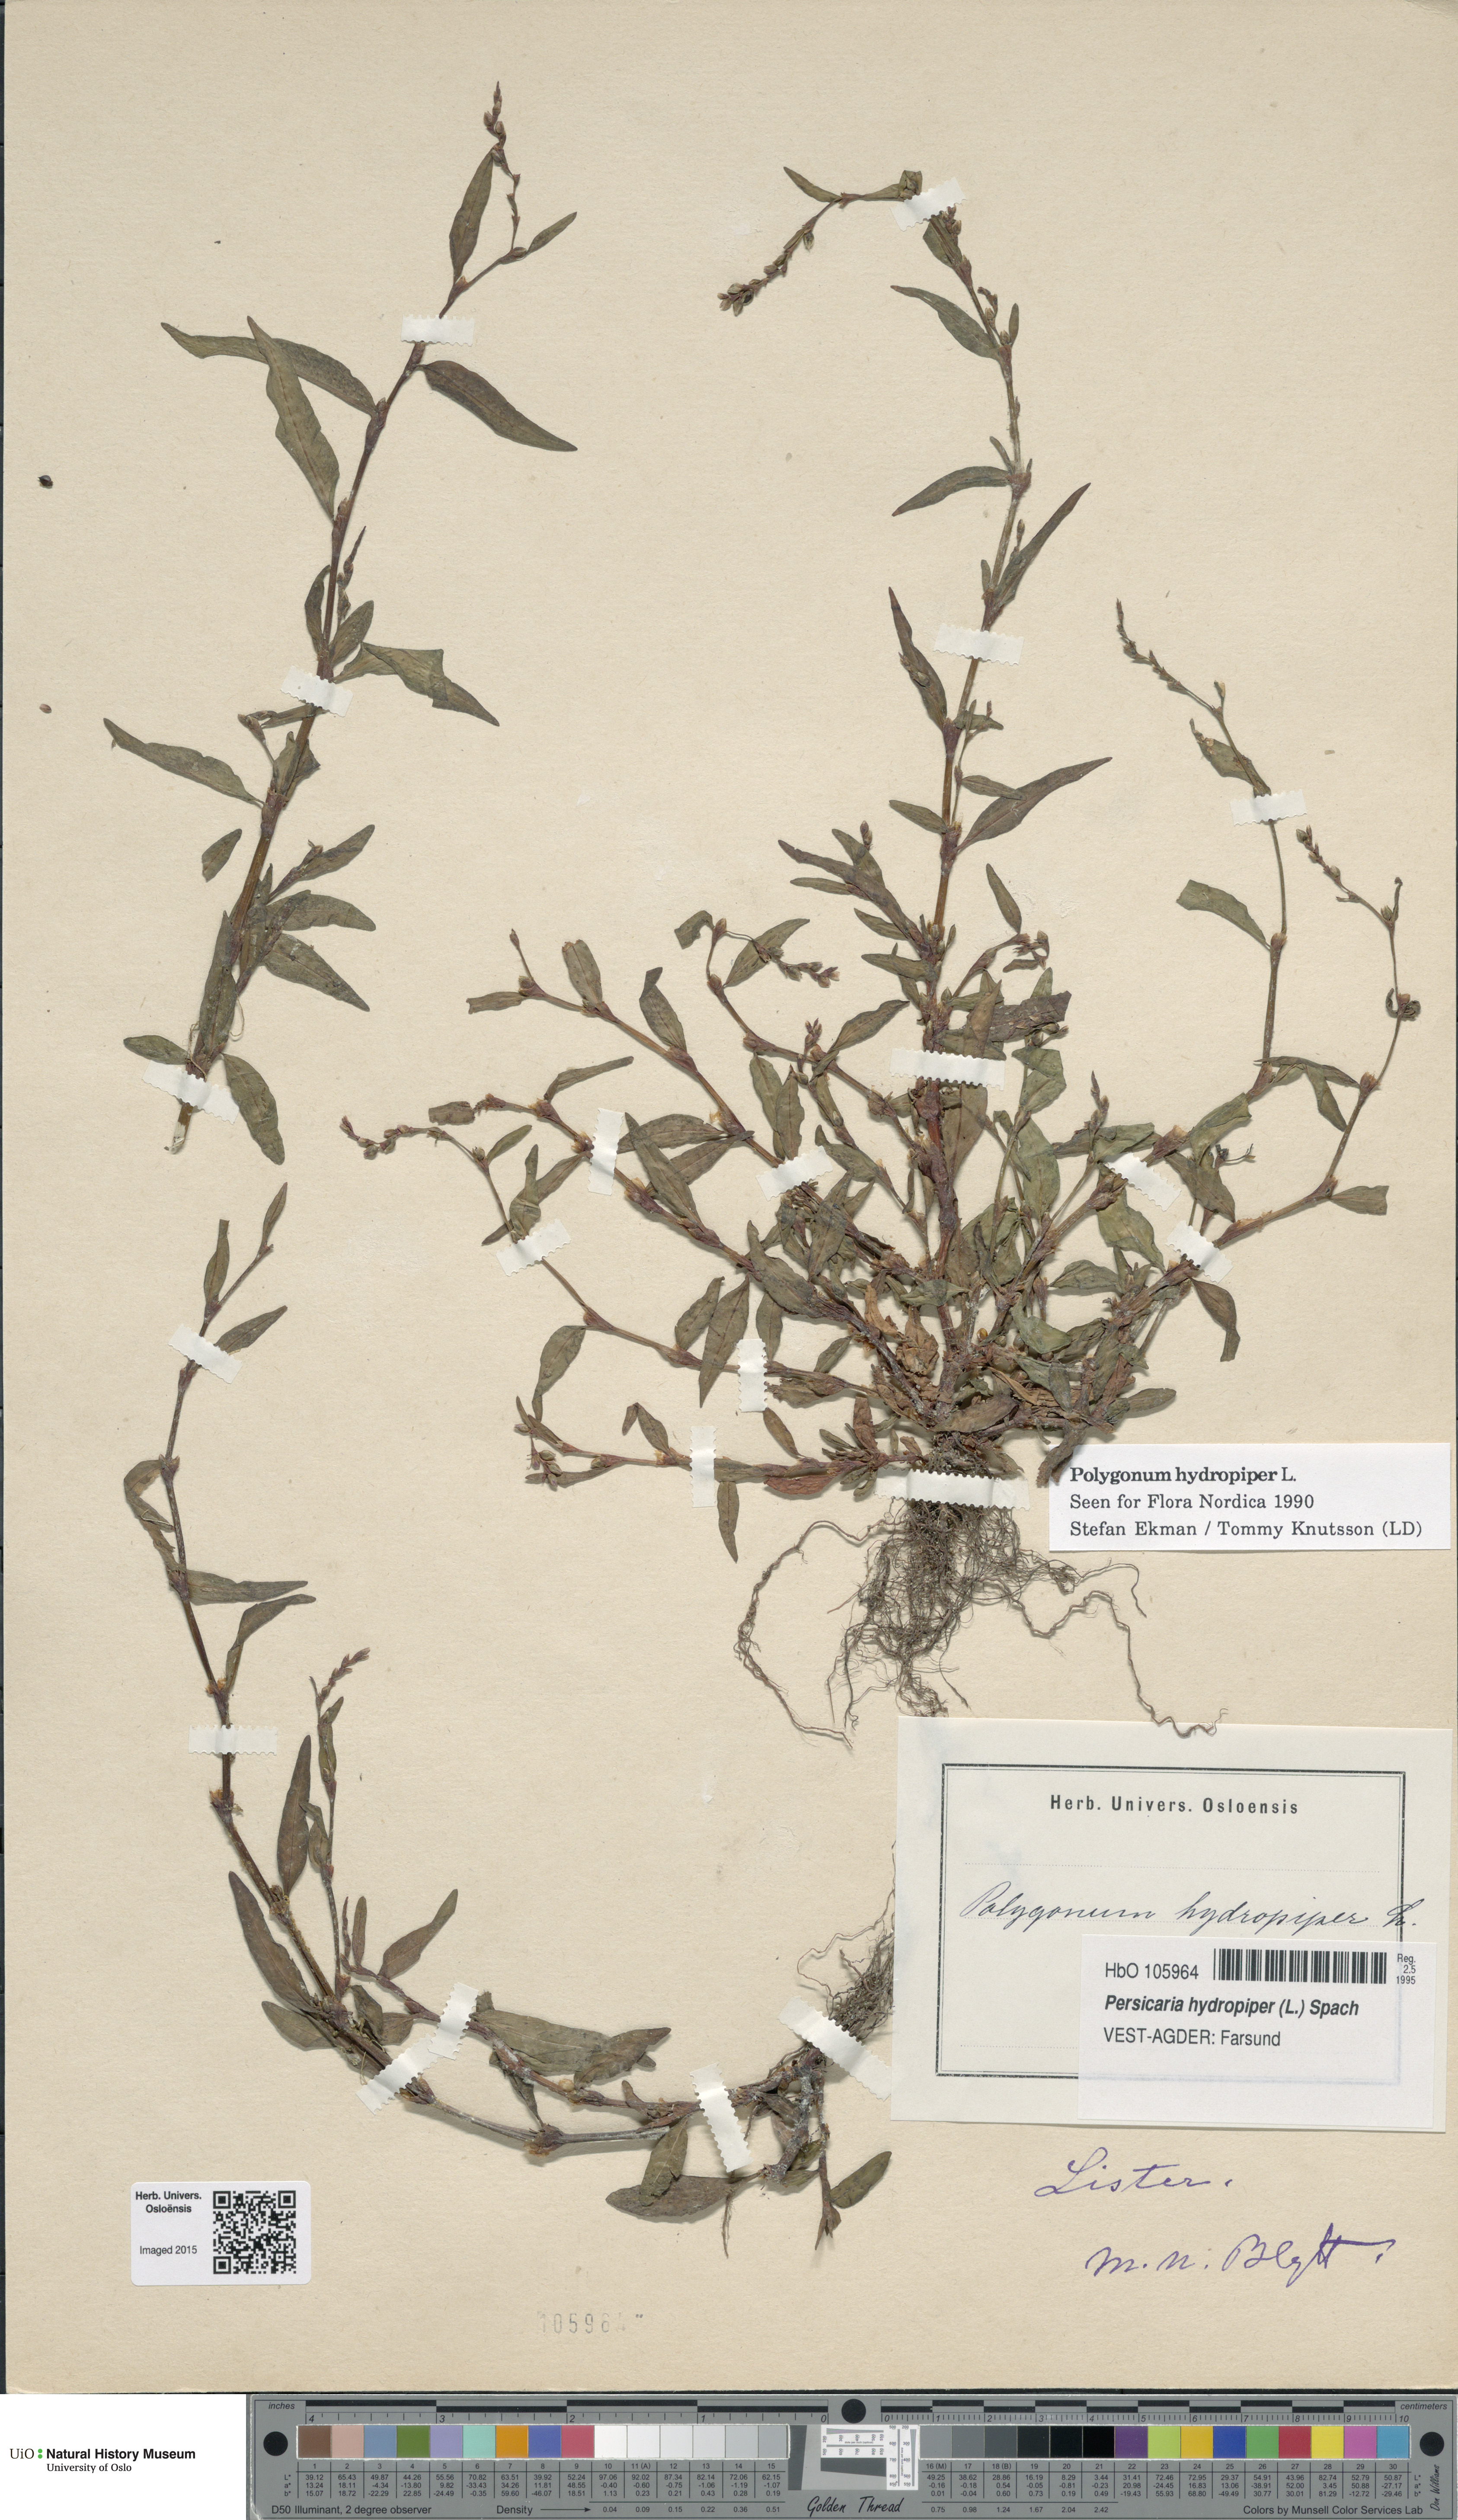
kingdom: Plantae
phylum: Tracheophyta
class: Magnoliopsida
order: Caryophyllales
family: Polygonaceae
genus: Persicaria
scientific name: Persicaria hydropiper
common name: Water-pepper
